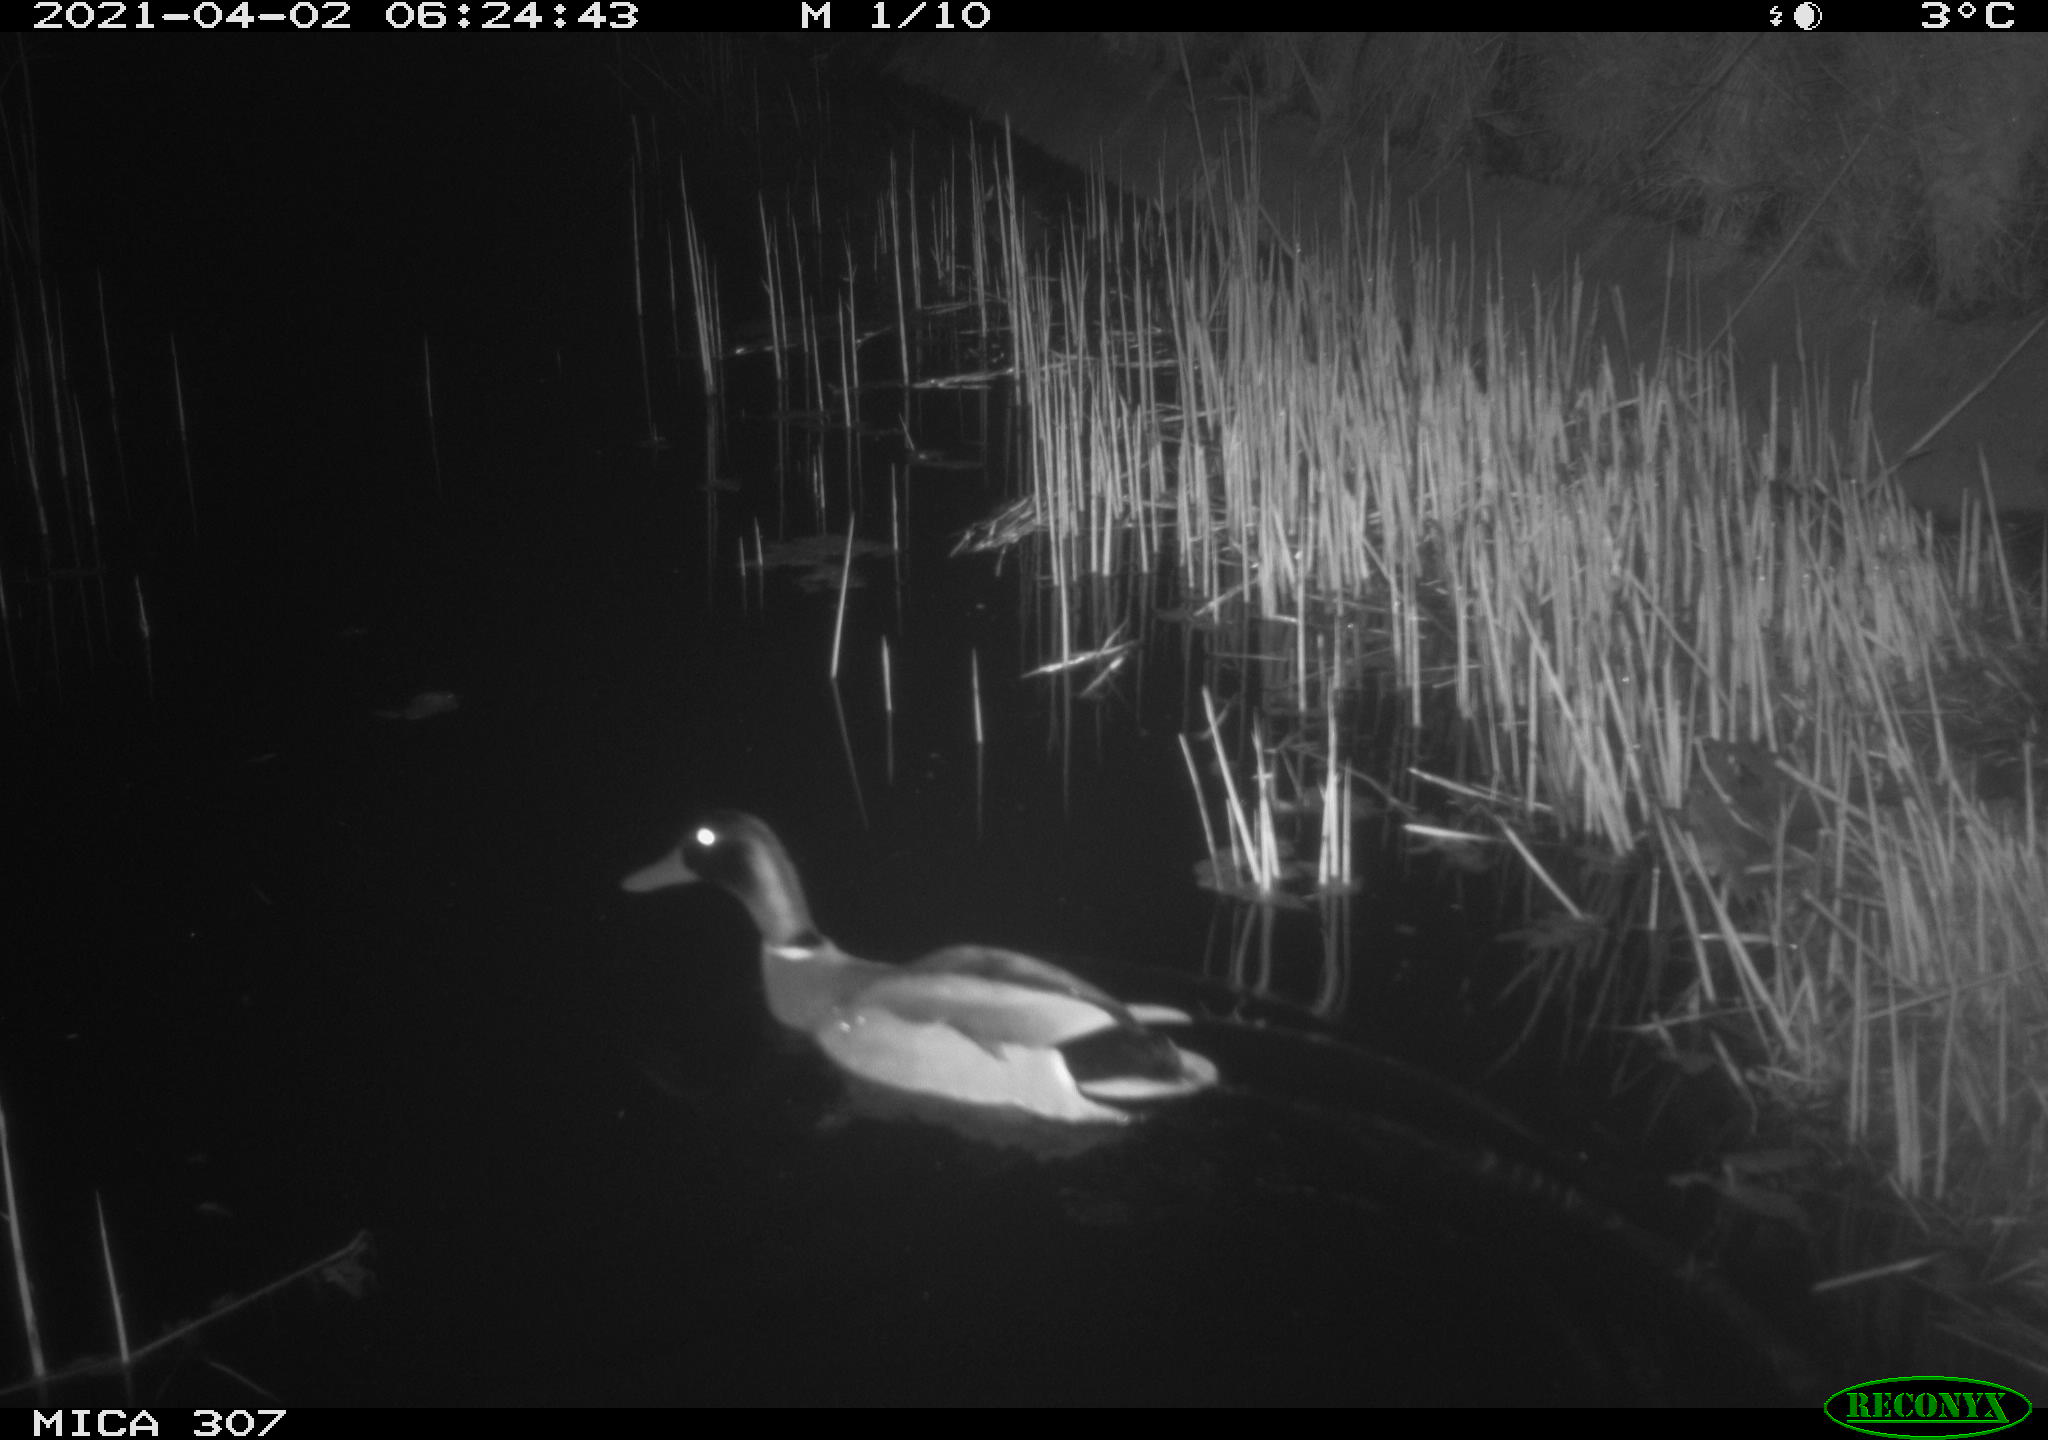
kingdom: Animalia
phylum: Chordata
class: Aves
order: Gruiformes
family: Rallidae
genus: Fulica
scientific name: Fulica atra
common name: Eurasian coot
